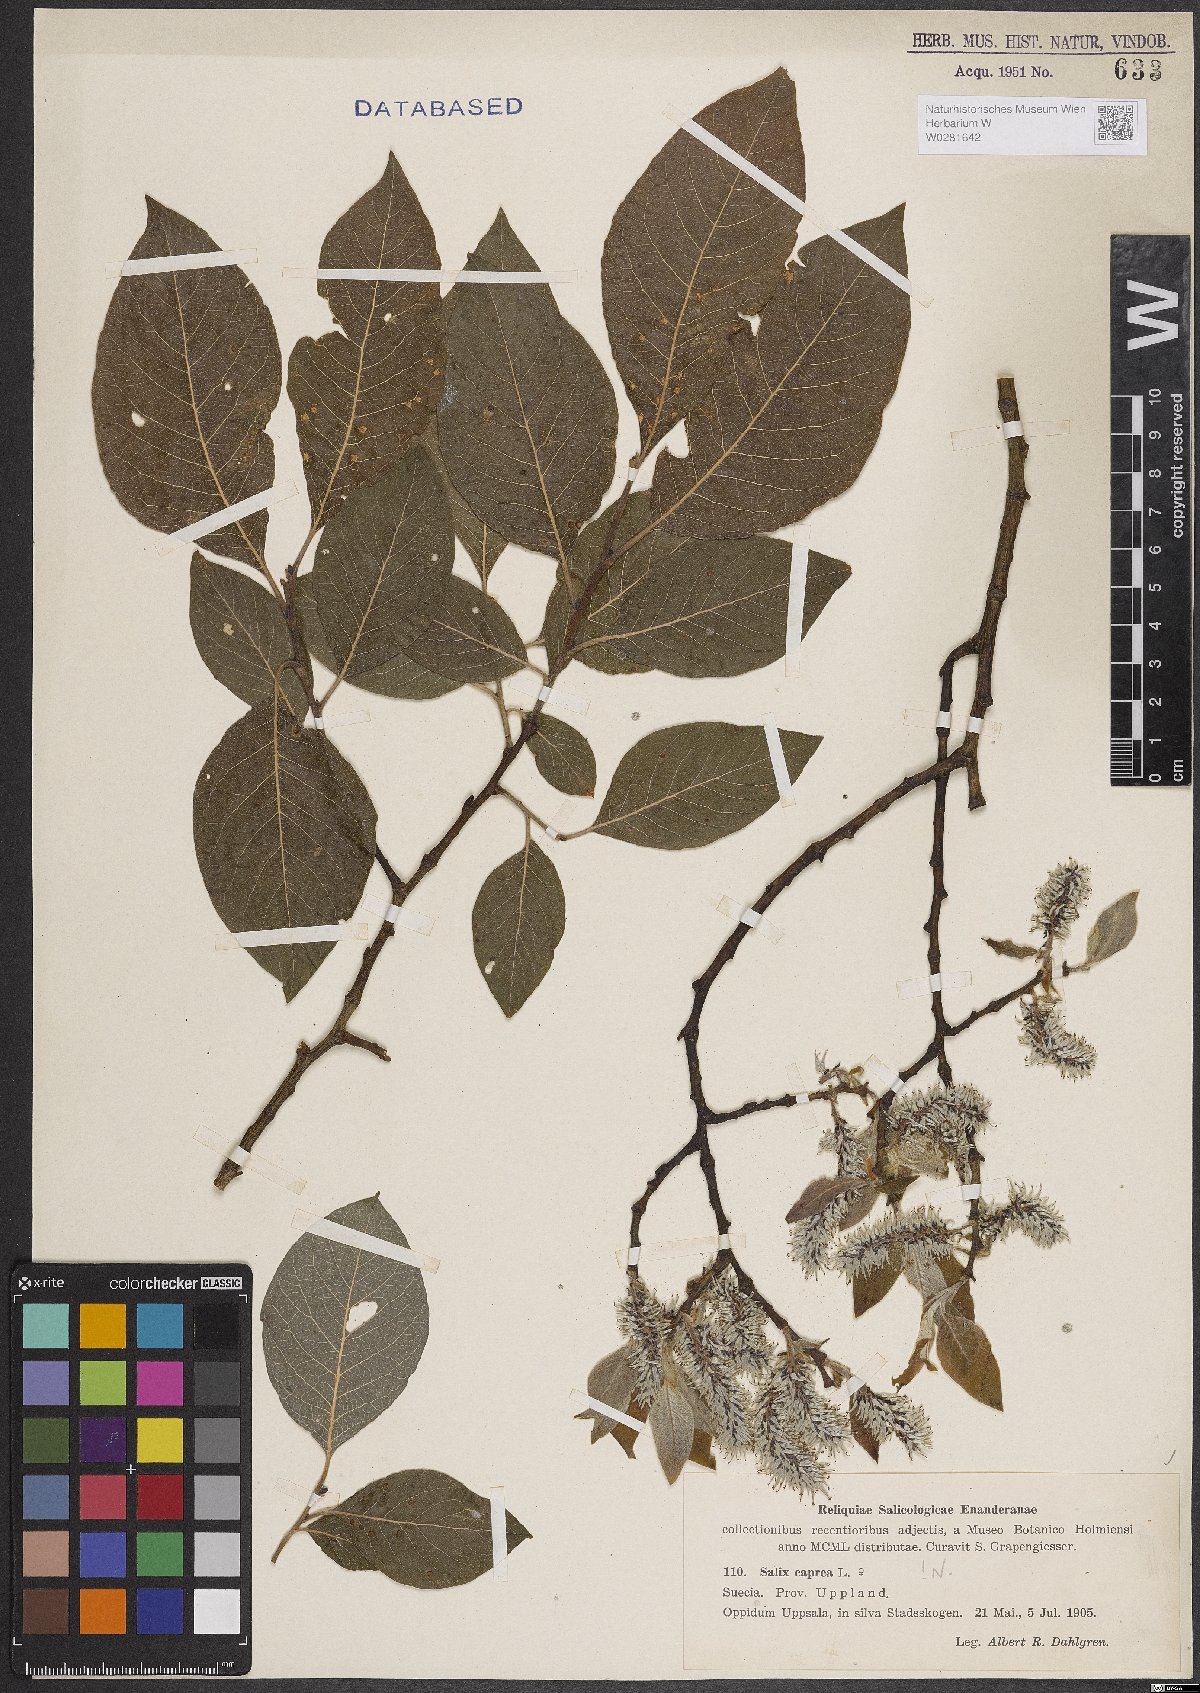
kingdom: Plantae
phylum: Tracheophyta
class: Magnoliopsida
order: Malpighiales
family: Salicaceae
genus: Salix
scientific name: Salix caprea
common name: Goat willow
